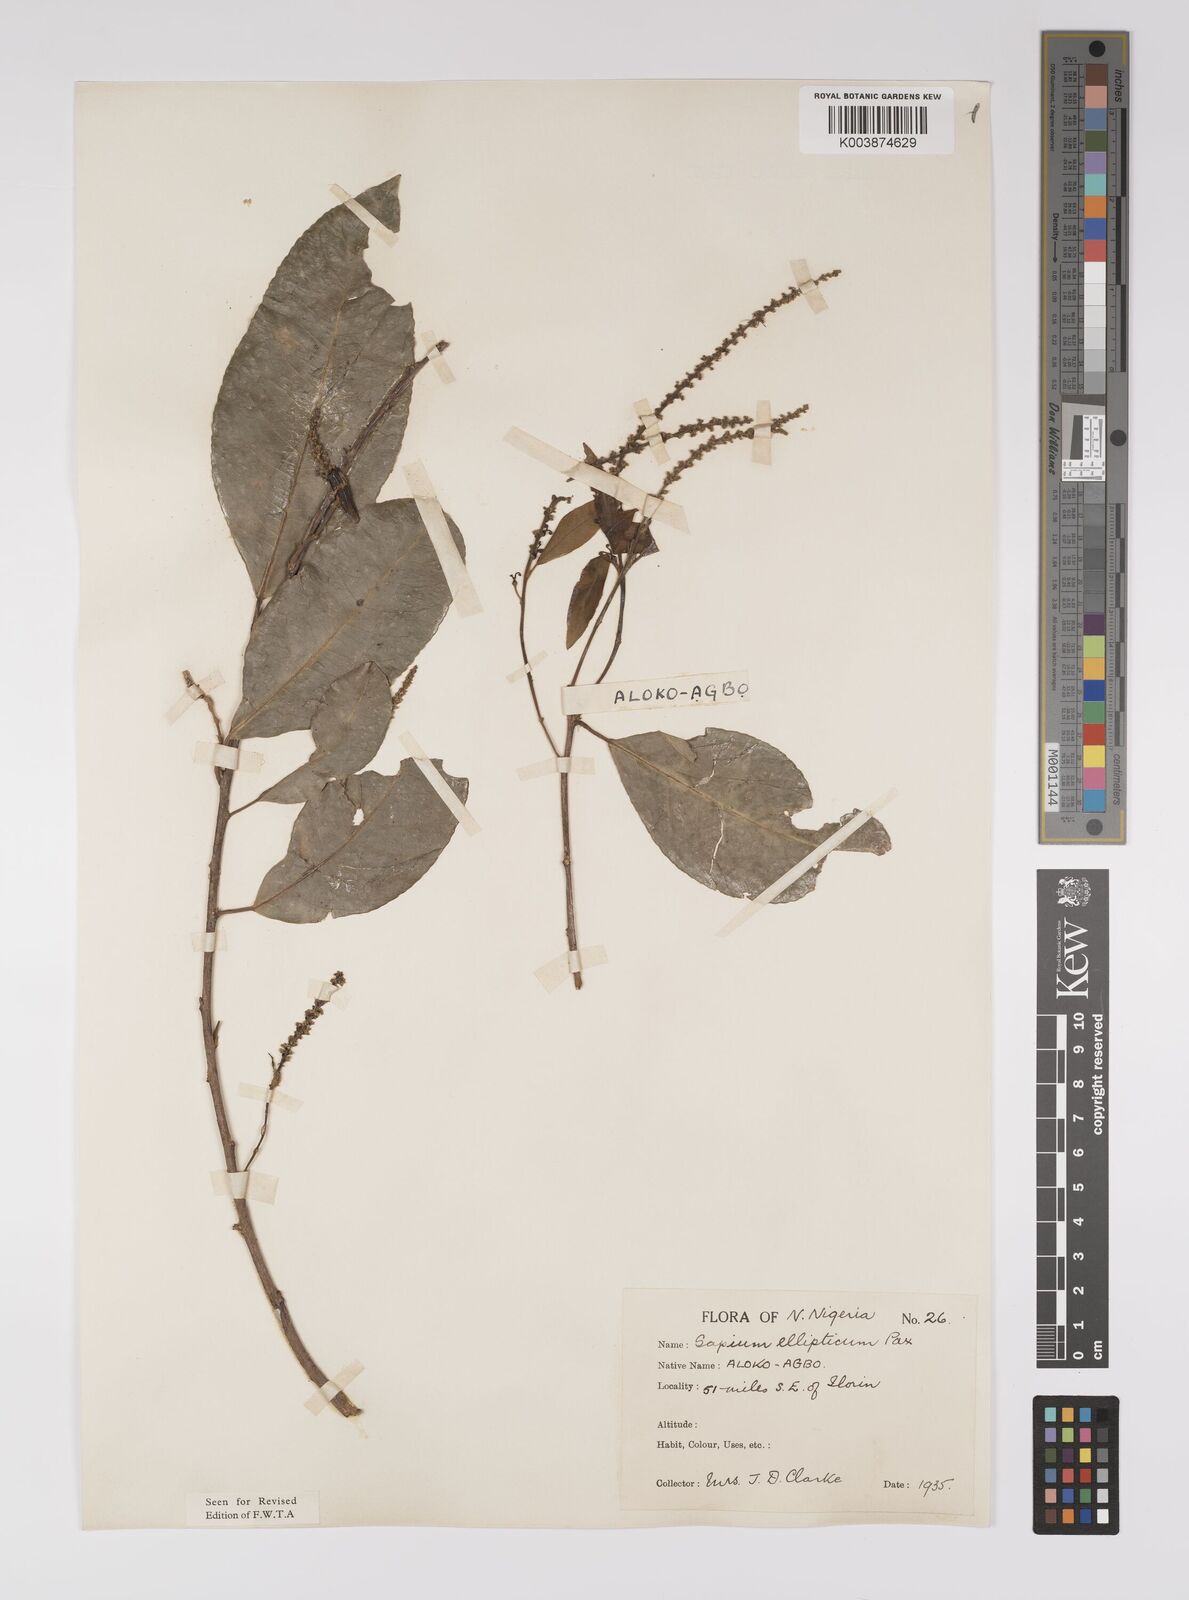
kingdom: Plantae
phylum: Tracheophyta
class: Magnoliopsida
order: Malpighiales
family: Euphorbiaceae
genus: Shirakiopsis
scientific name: Shirakiopsis elliptica
